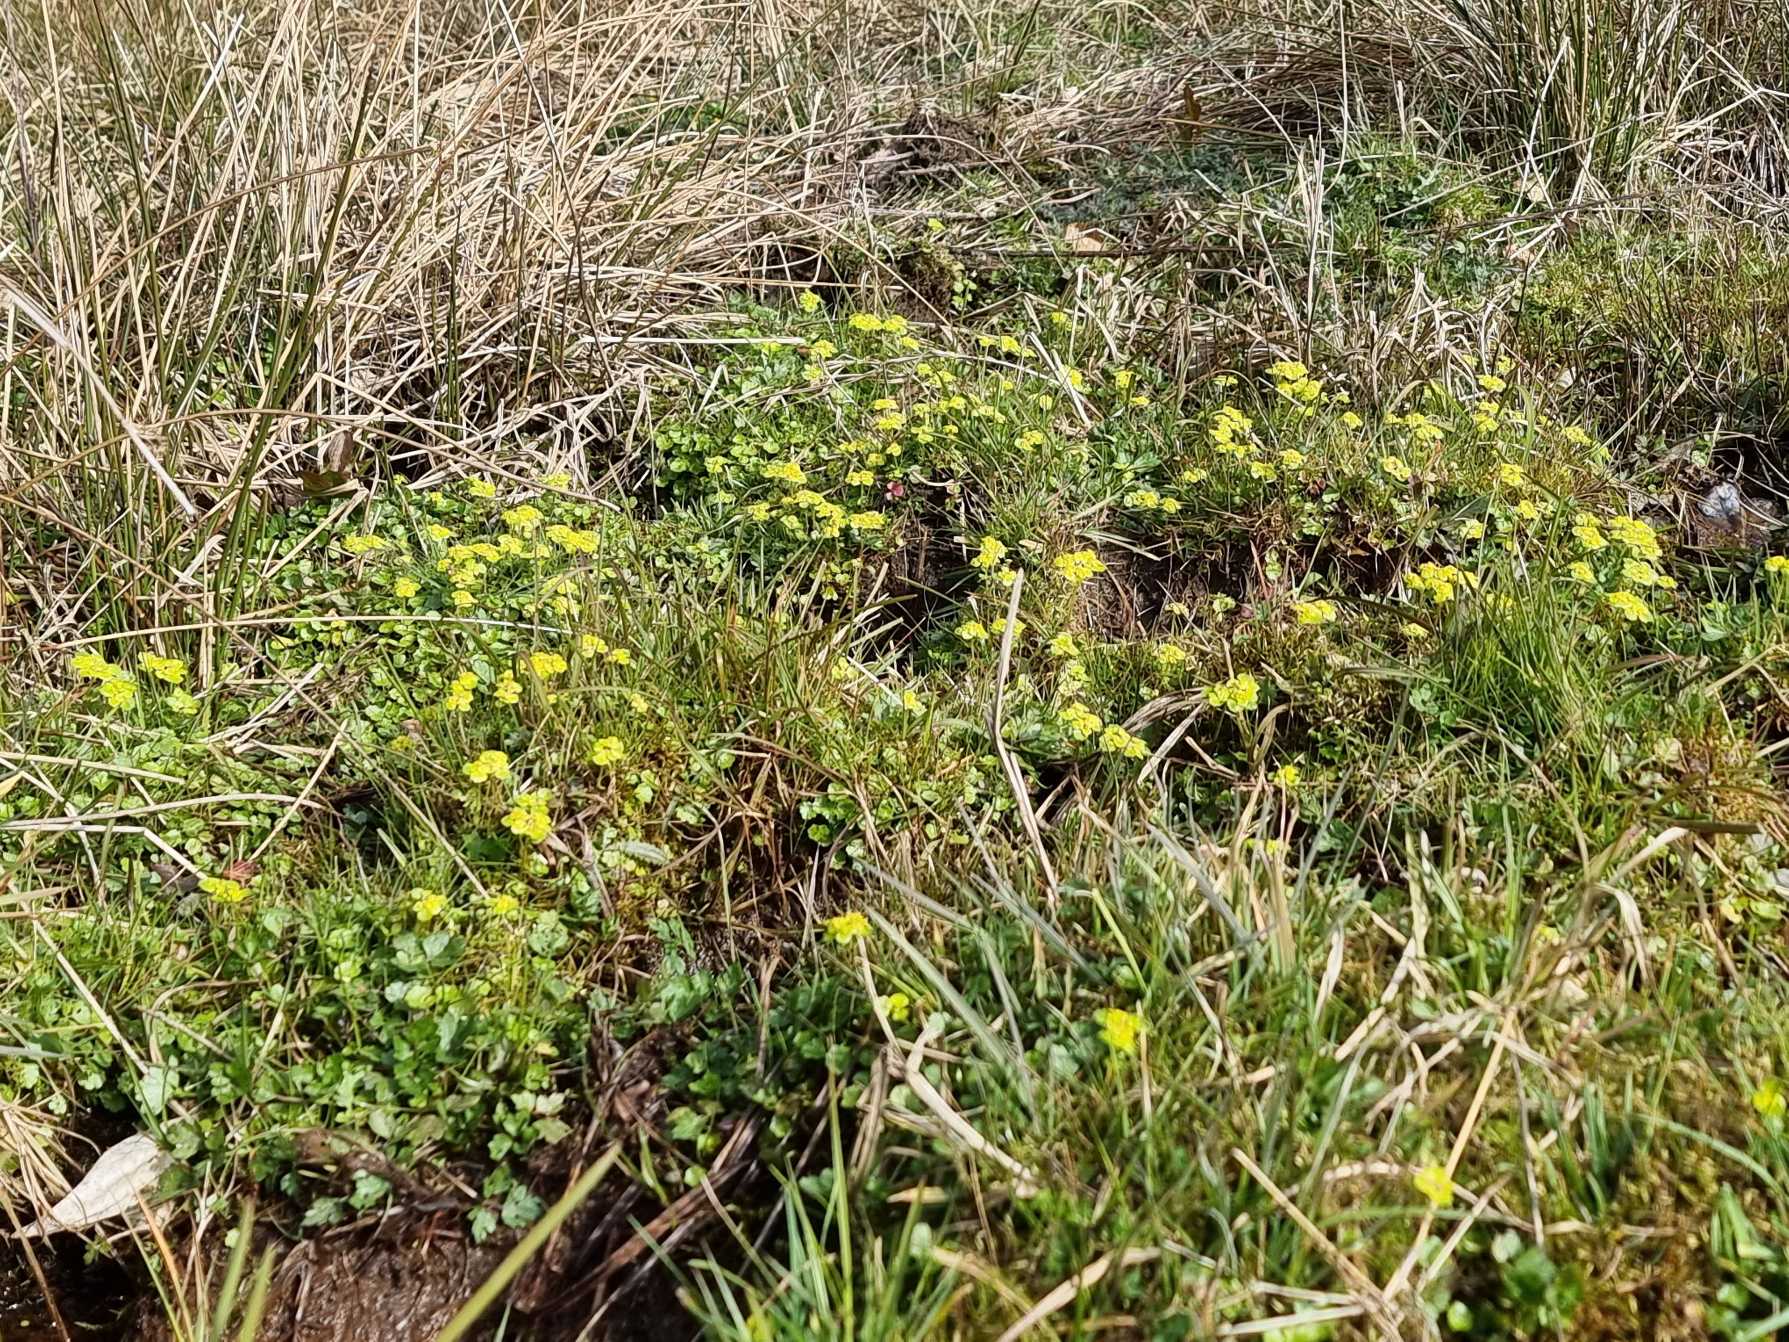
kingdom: Plantae
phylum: Tracheophyta
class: Magnoliopsida
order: Saxifragales
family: Saxifragaceae
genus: Chrysosplenium
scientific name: Chrysosplenium alternifolium
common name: Almindelig milturt
